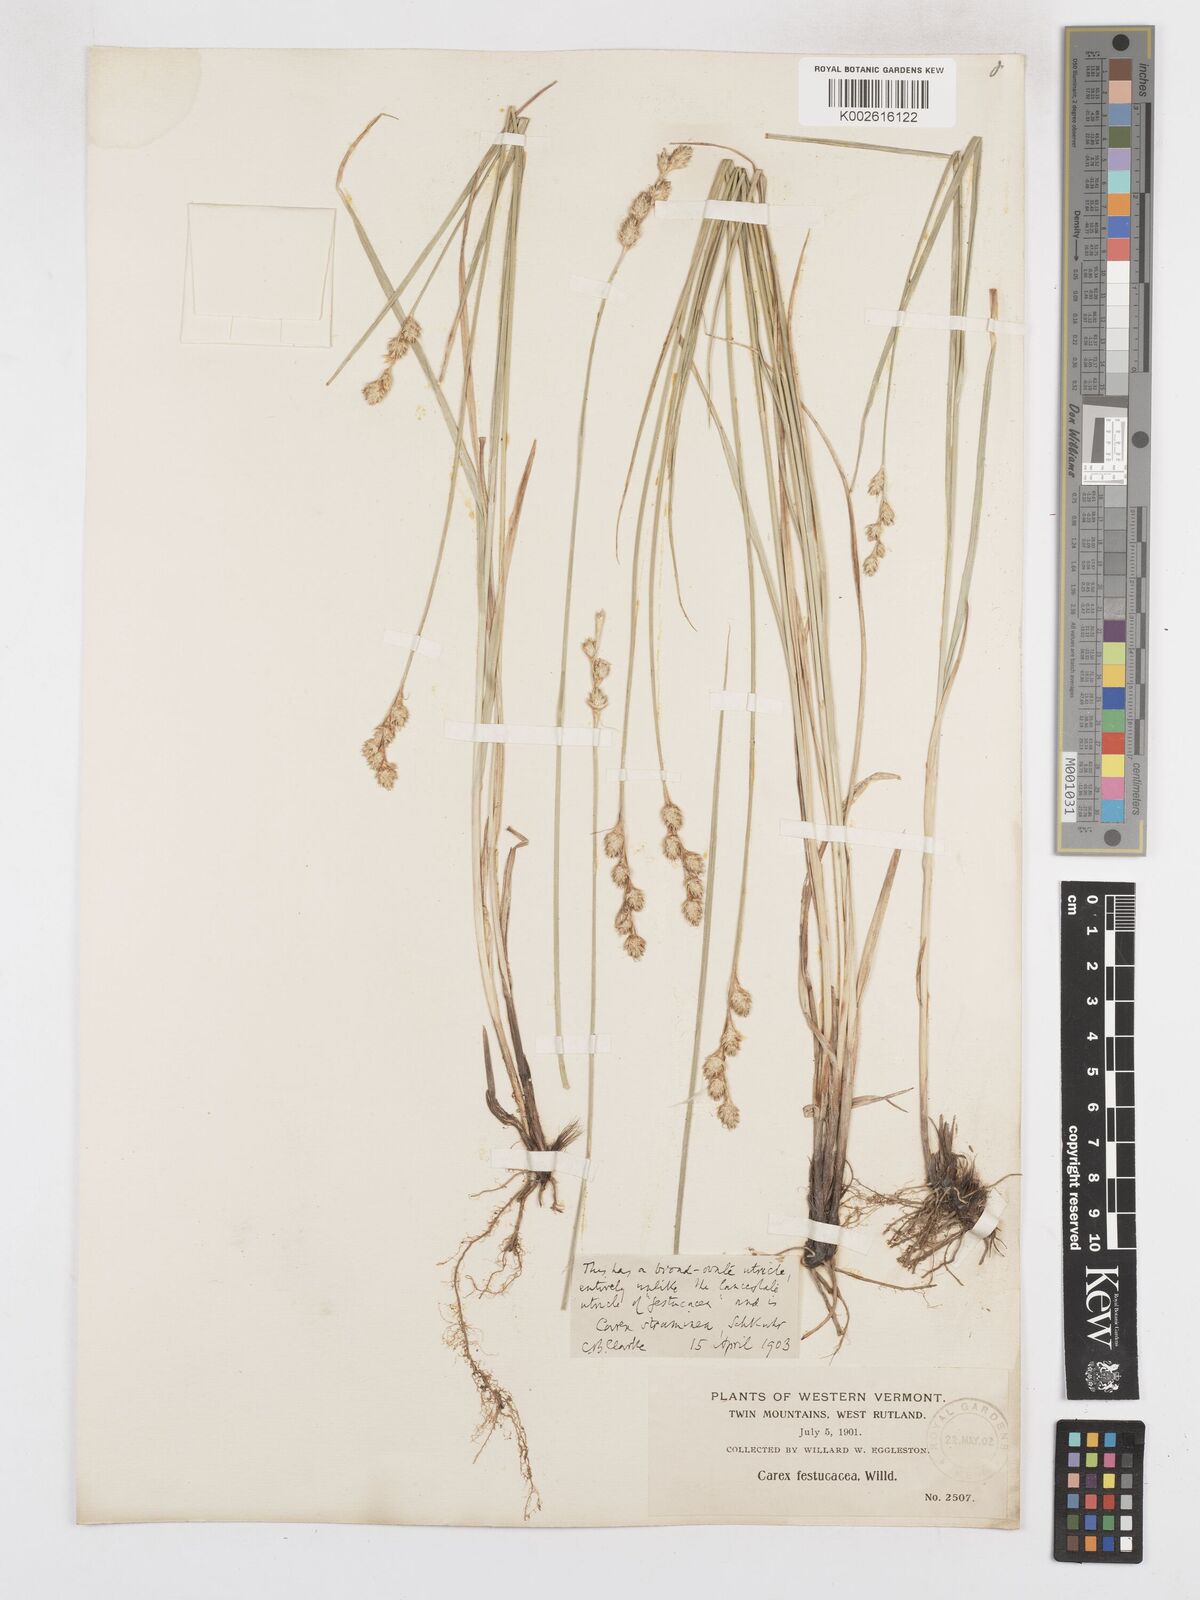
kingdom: Plantae
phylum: Tracheophyta
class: Liliopsida
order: Poales
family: Cyperaceae
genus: Carex
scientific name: Carex brevior
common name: Brevior sedge
